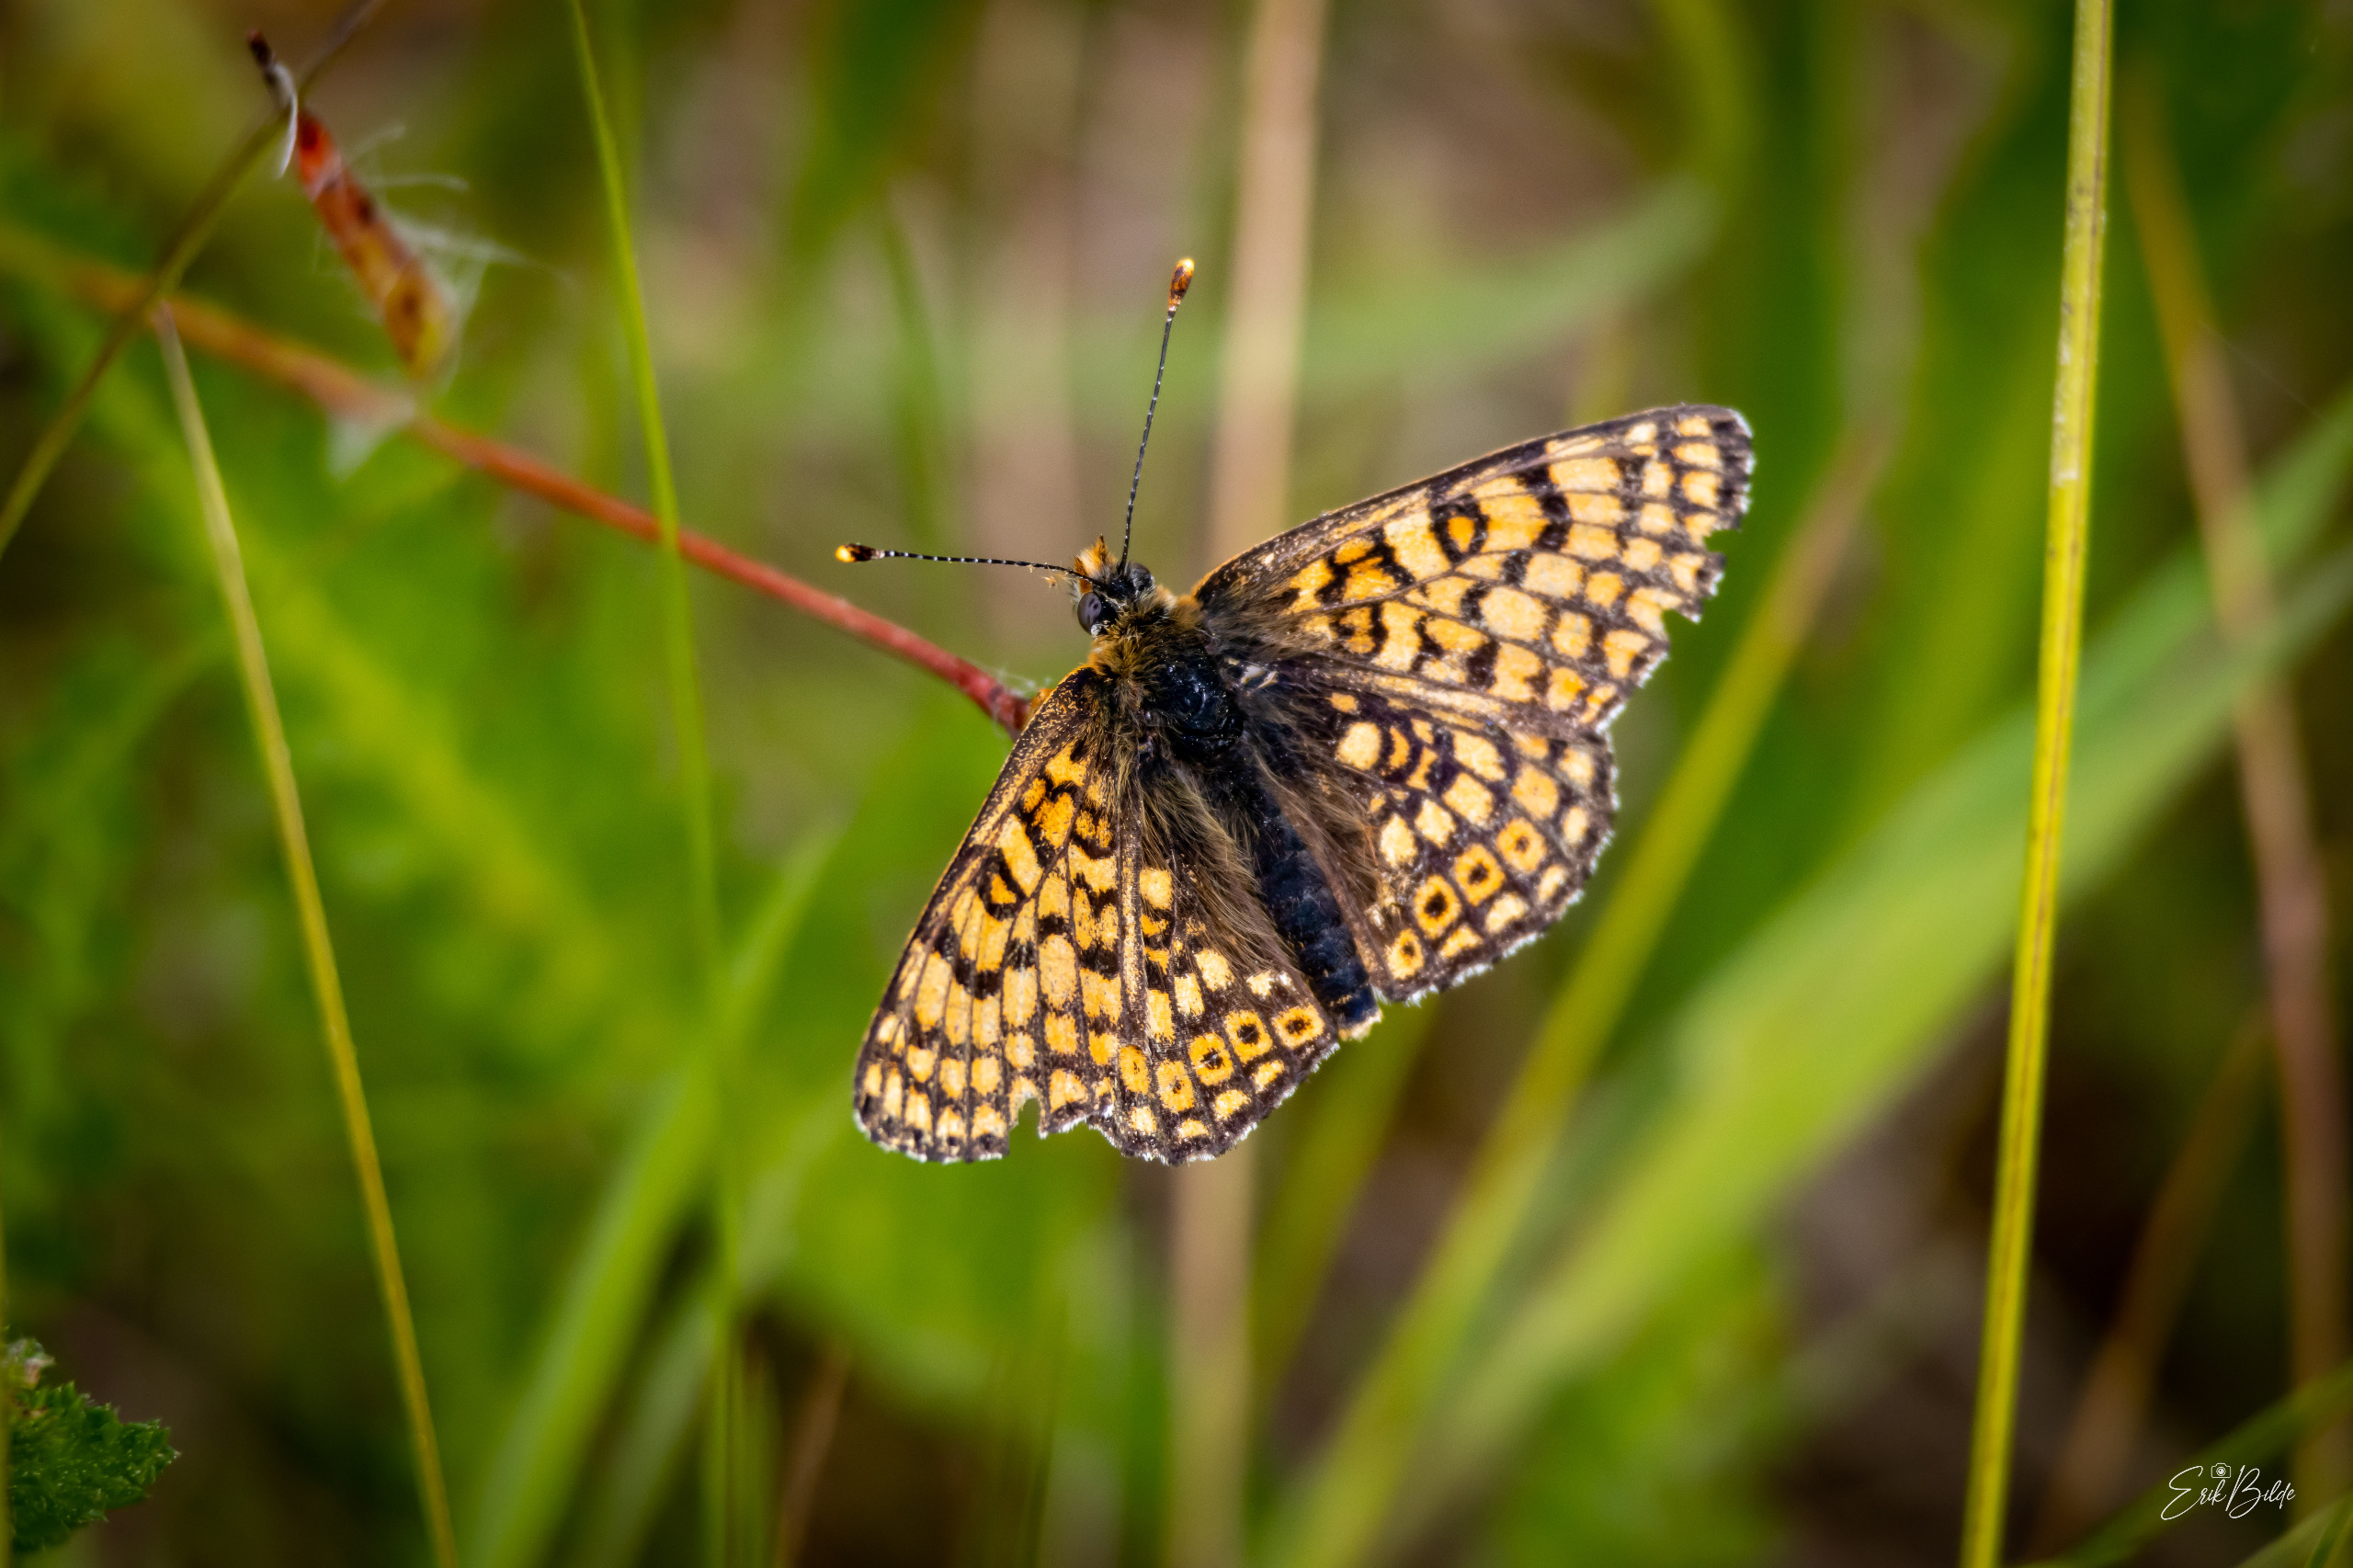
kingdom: Animalia
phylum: Arthropoda
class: Insecta
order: Lepidoptera
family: Nymphalidae
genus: Melitaea
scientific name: Melitaea cinxia
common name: Okkergul pletvinge
